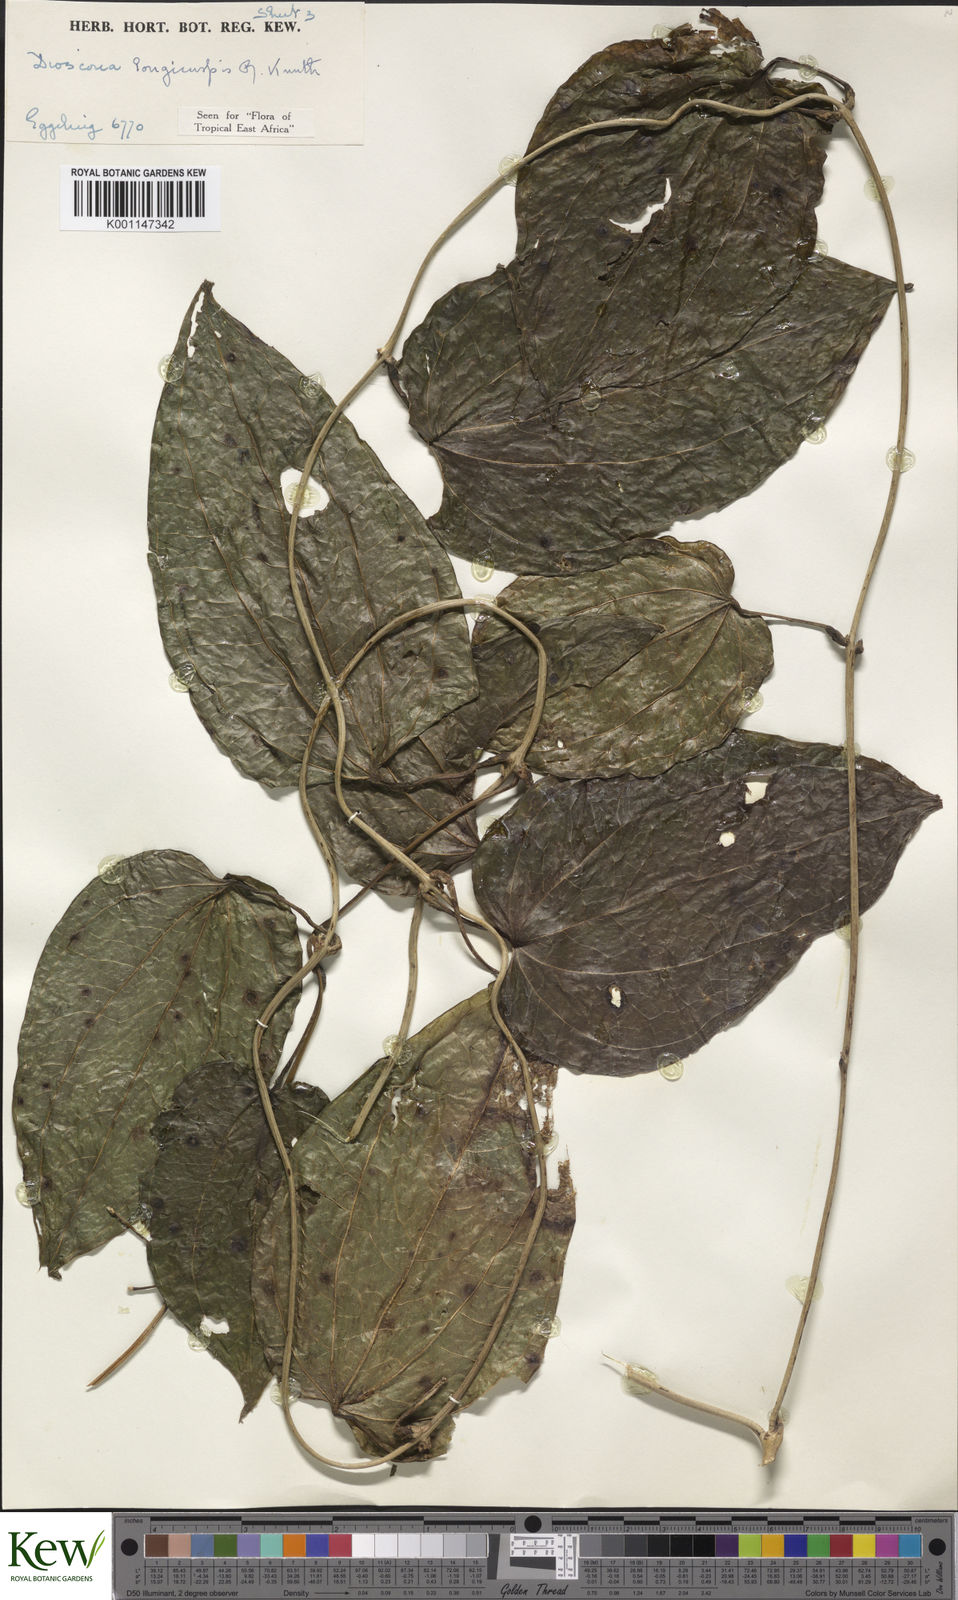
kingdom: Plantae
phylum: Tracheophyta
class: Liliopsida
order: Dioscoreales
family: Dioscoreaceae
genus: Dioscorea
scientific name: Dioscorea longicuspis
